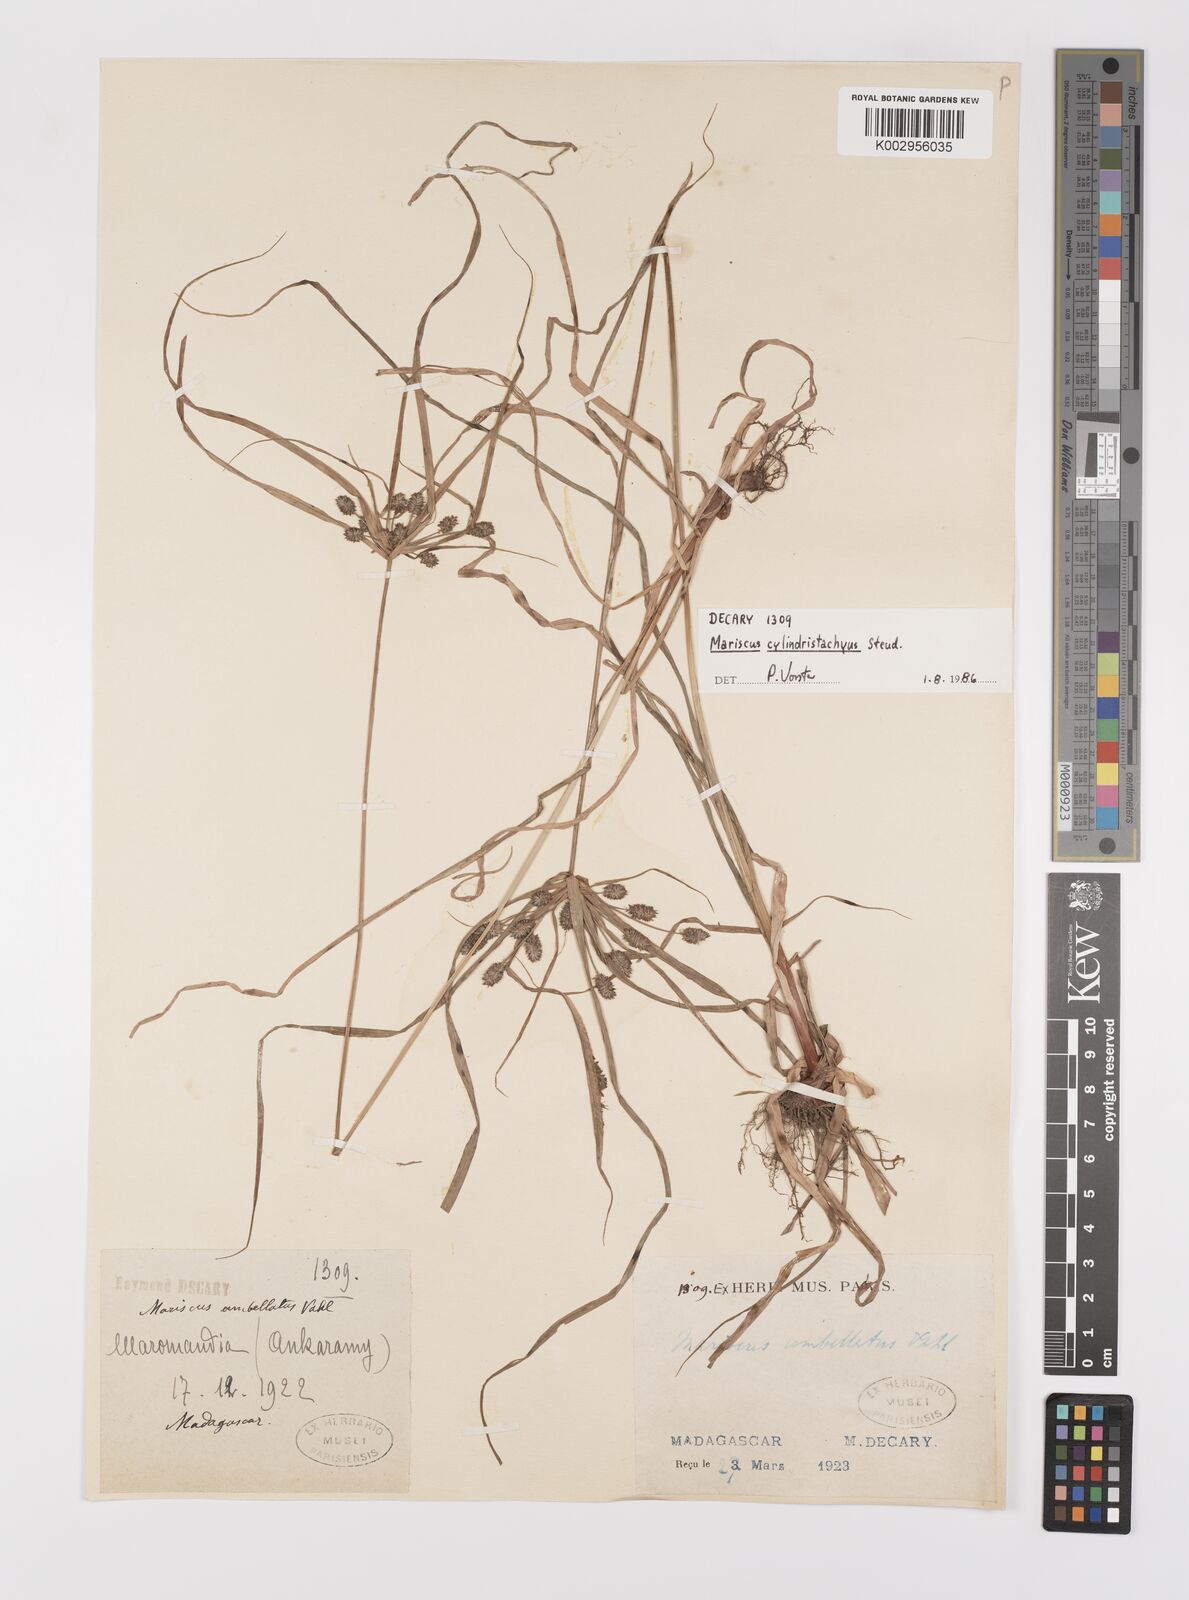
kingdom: Plantae
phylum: Tracheophyta
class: Liliopsida
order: Poales
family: Cyperaceae
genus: Cyperus
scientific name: Cyperus cyperoides
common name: Pacific island flat sedge
